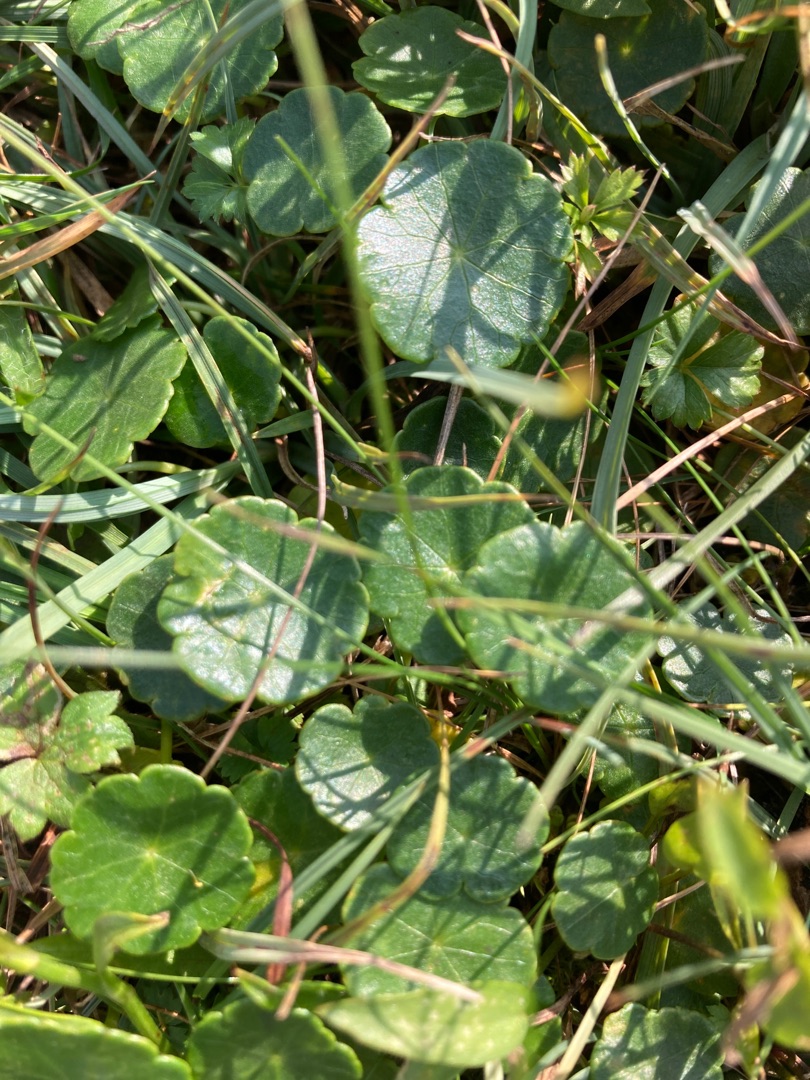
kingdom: Plantae
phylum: Tracheophyta
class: Magnoliopsida
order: Apiales
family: Araliaceae
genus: Hydrocotyle
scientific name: Hydrocotyle vulgaris
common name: Vandnavle
